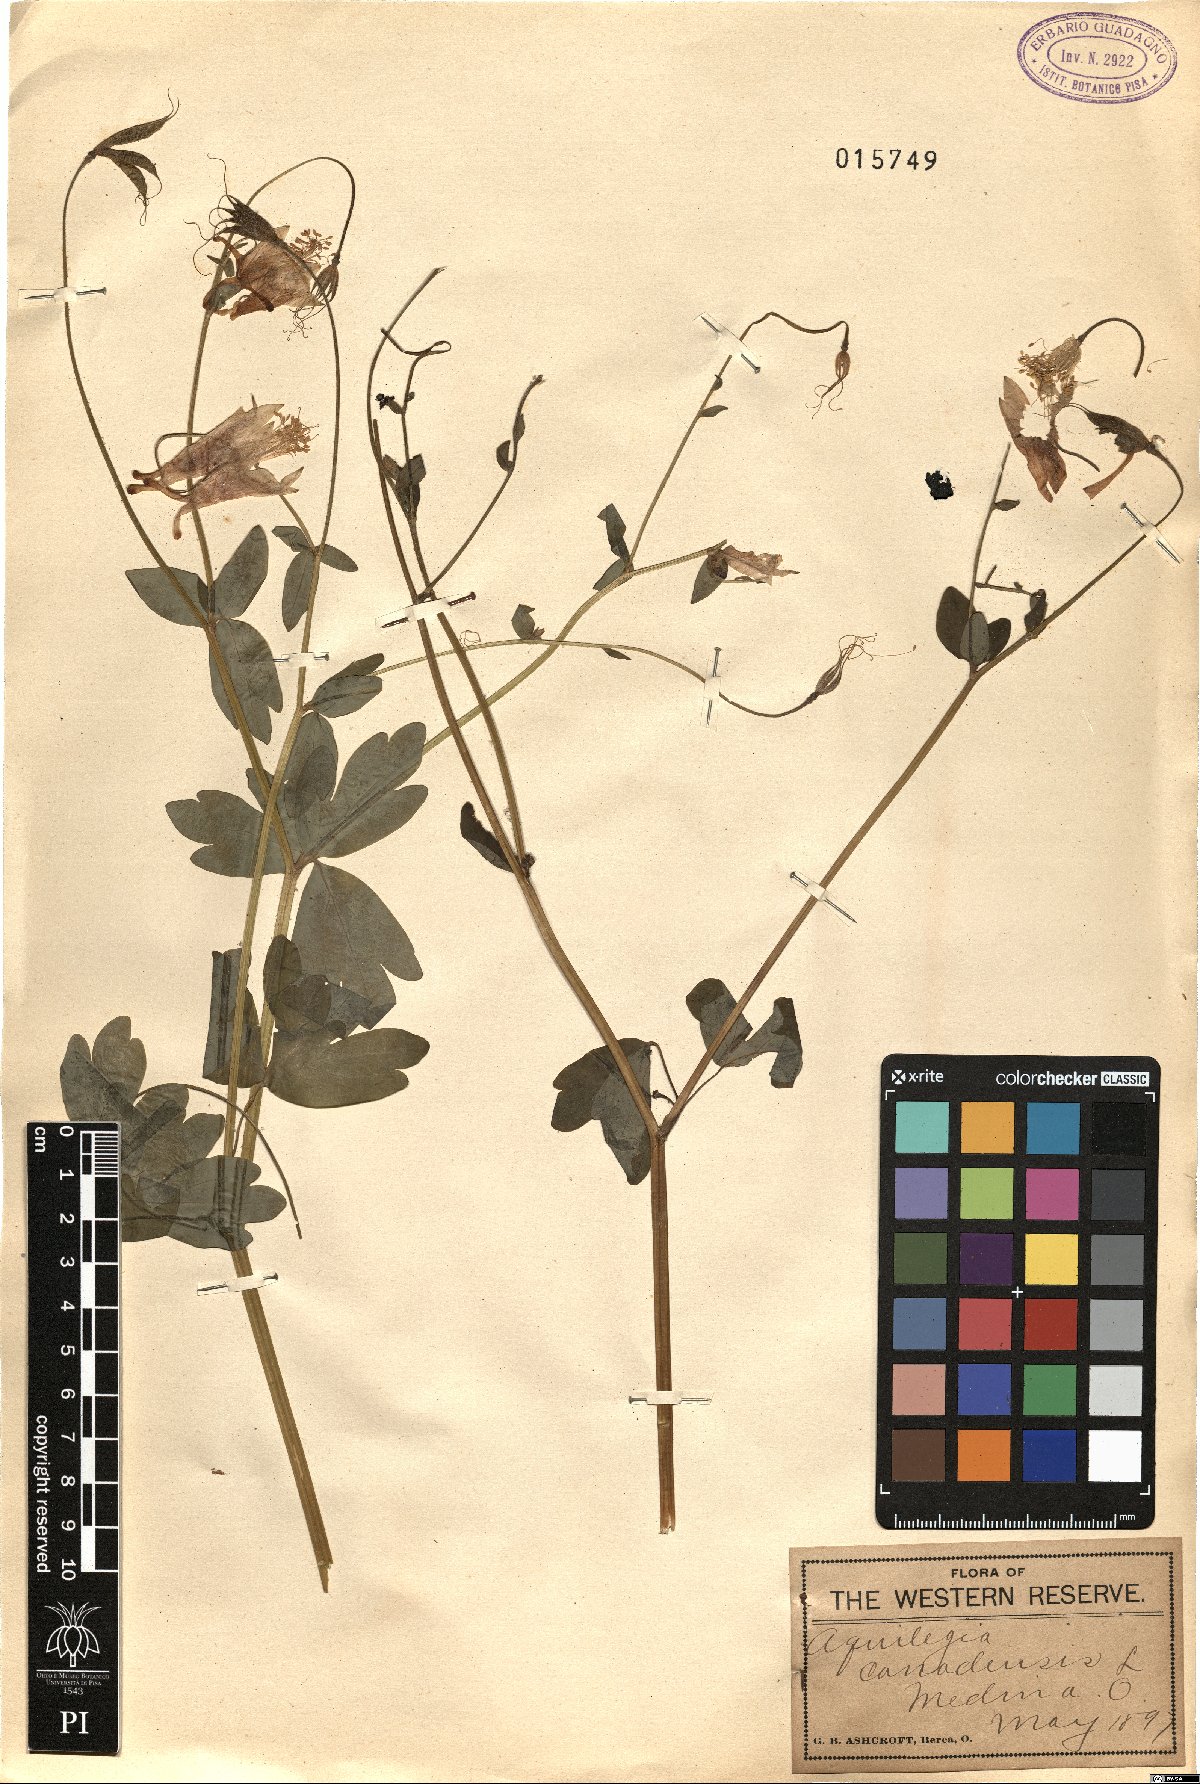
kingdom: Plantae
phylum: Tracheophyta
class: Magnoliopsida
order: Ranunculales
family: Ranunculaceae
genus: Aquilegia
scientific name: Aquilegia canadensis
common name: American columbine
